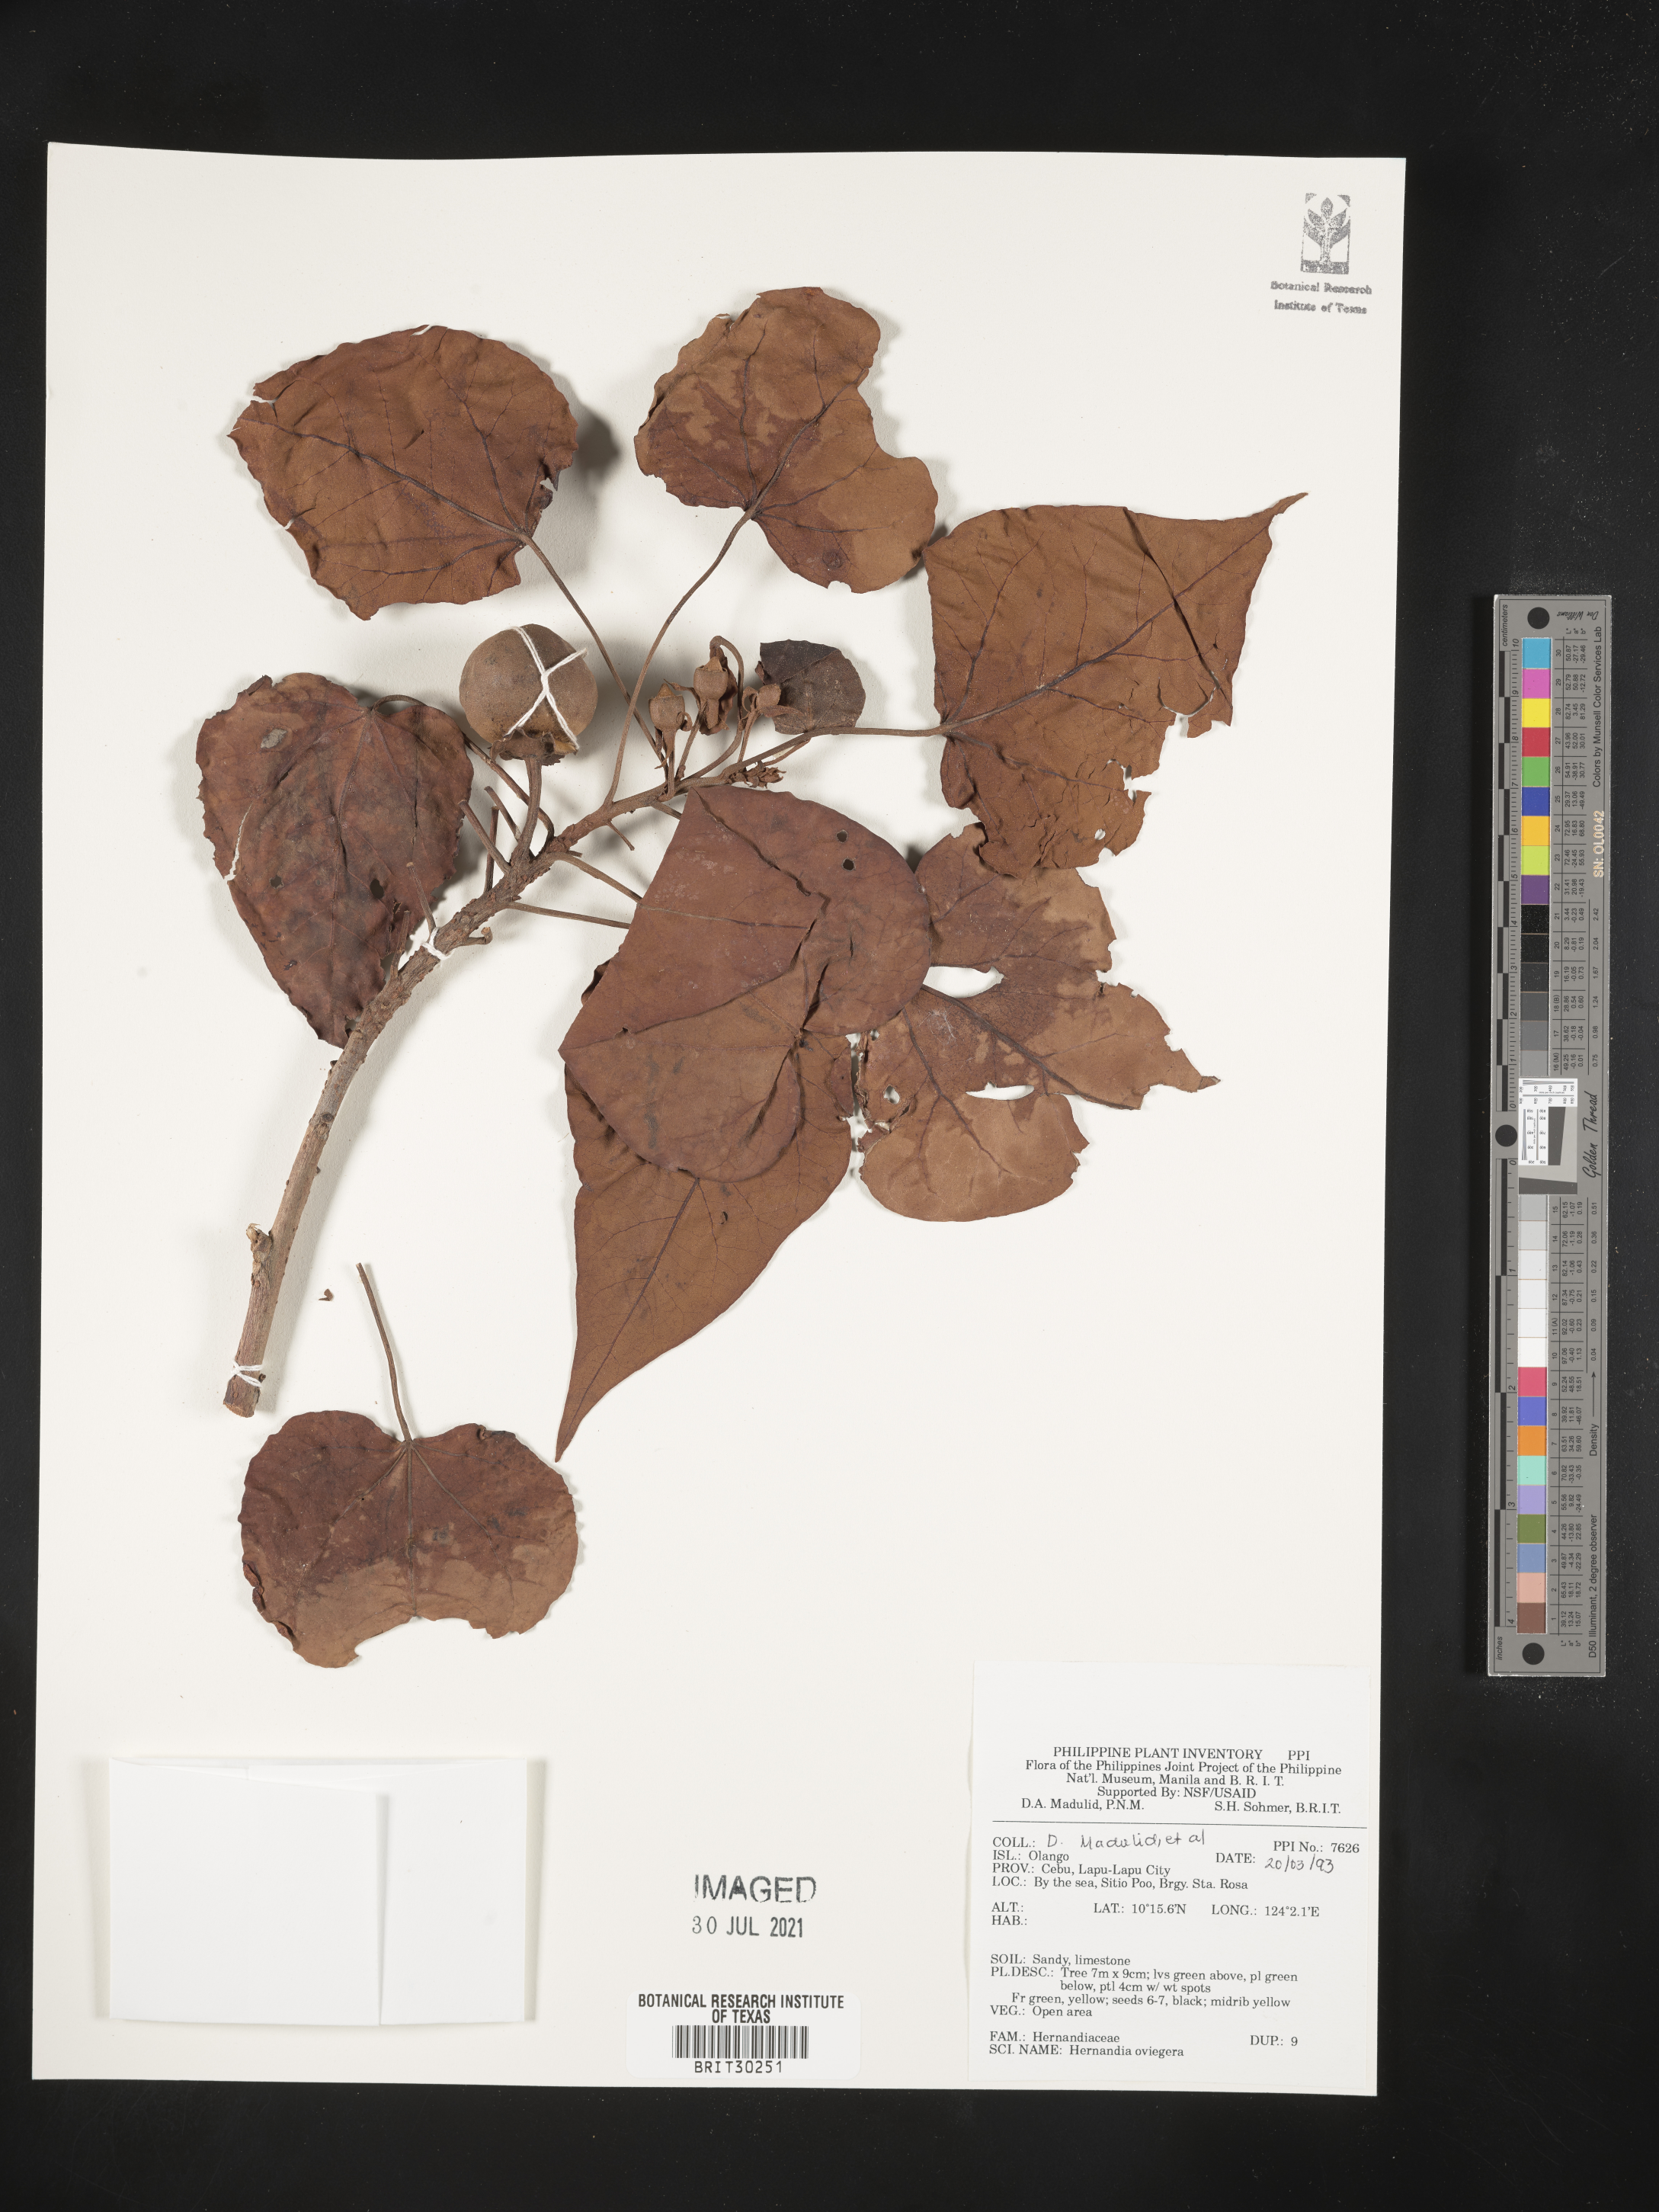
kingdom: Plantae
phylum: Tracheophyta
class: Magnoliopsida
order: Laurales
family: Hernandiaceae
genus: Hernandia
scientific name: Hernandia ovigera
